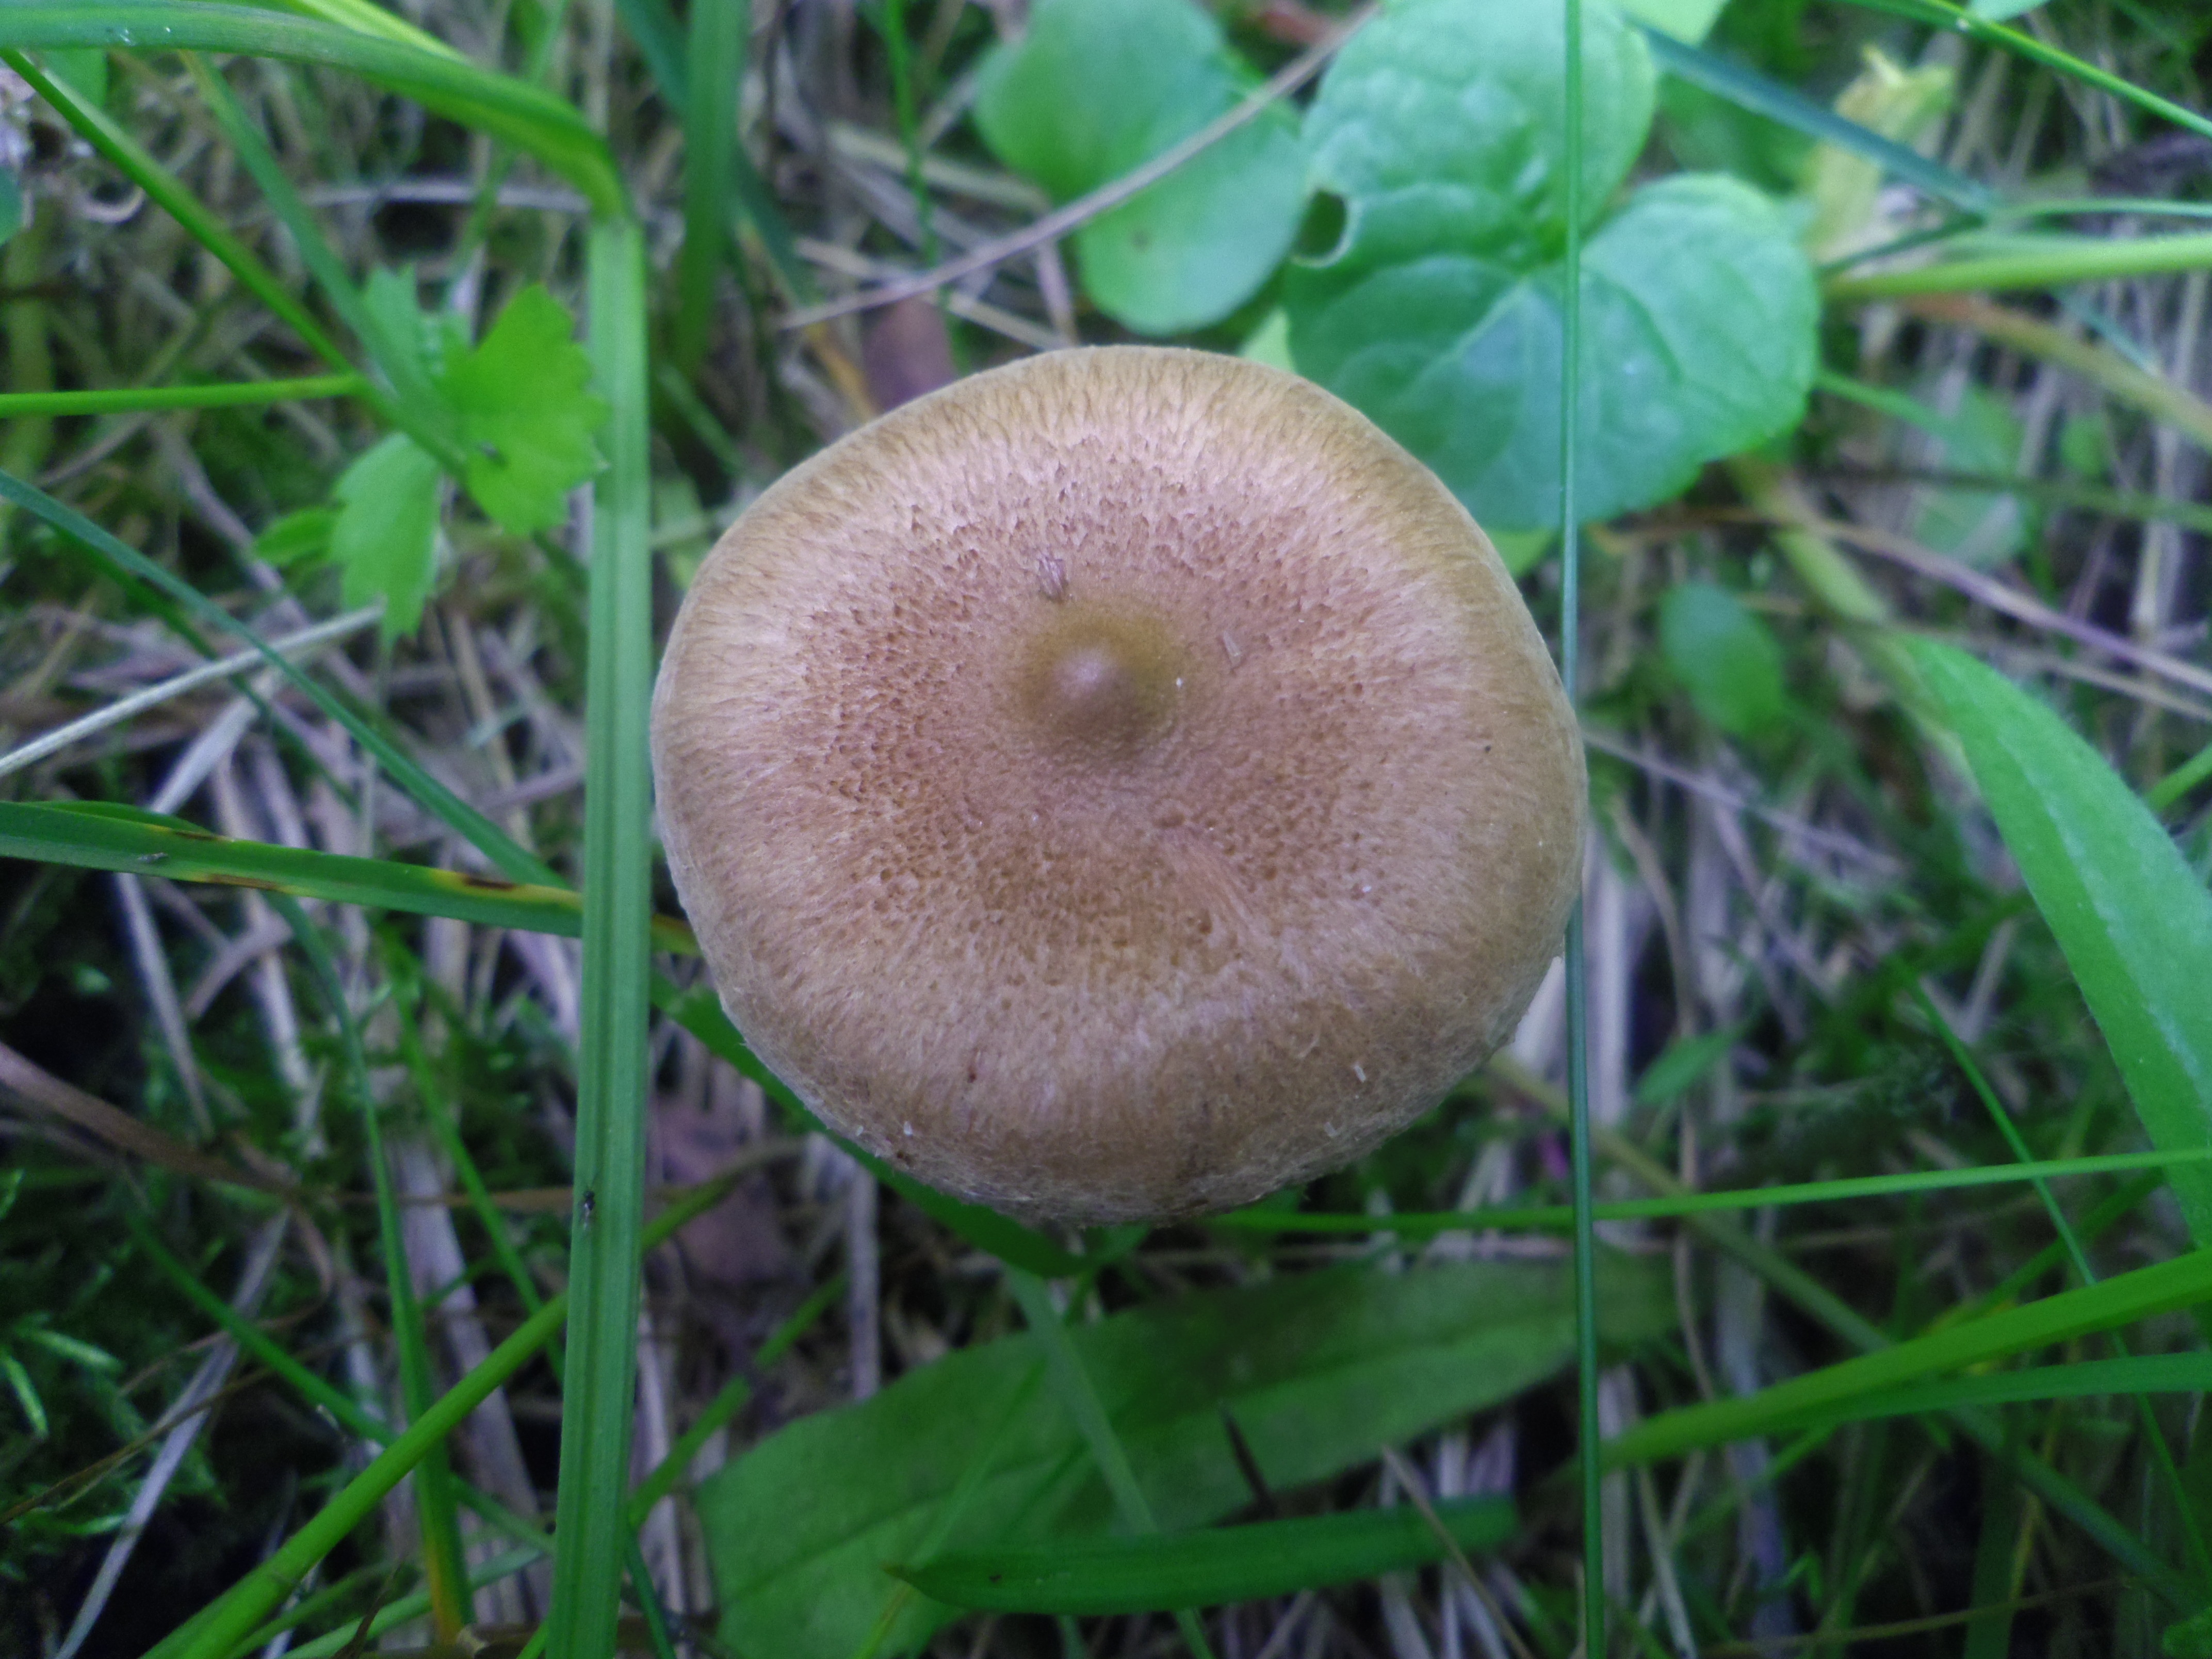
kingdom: Fungi
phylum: Basidiomycota
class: Agaricomycetes
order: Agaricales
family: Inocybaceae
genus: Inocybe
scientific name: Inocybe
